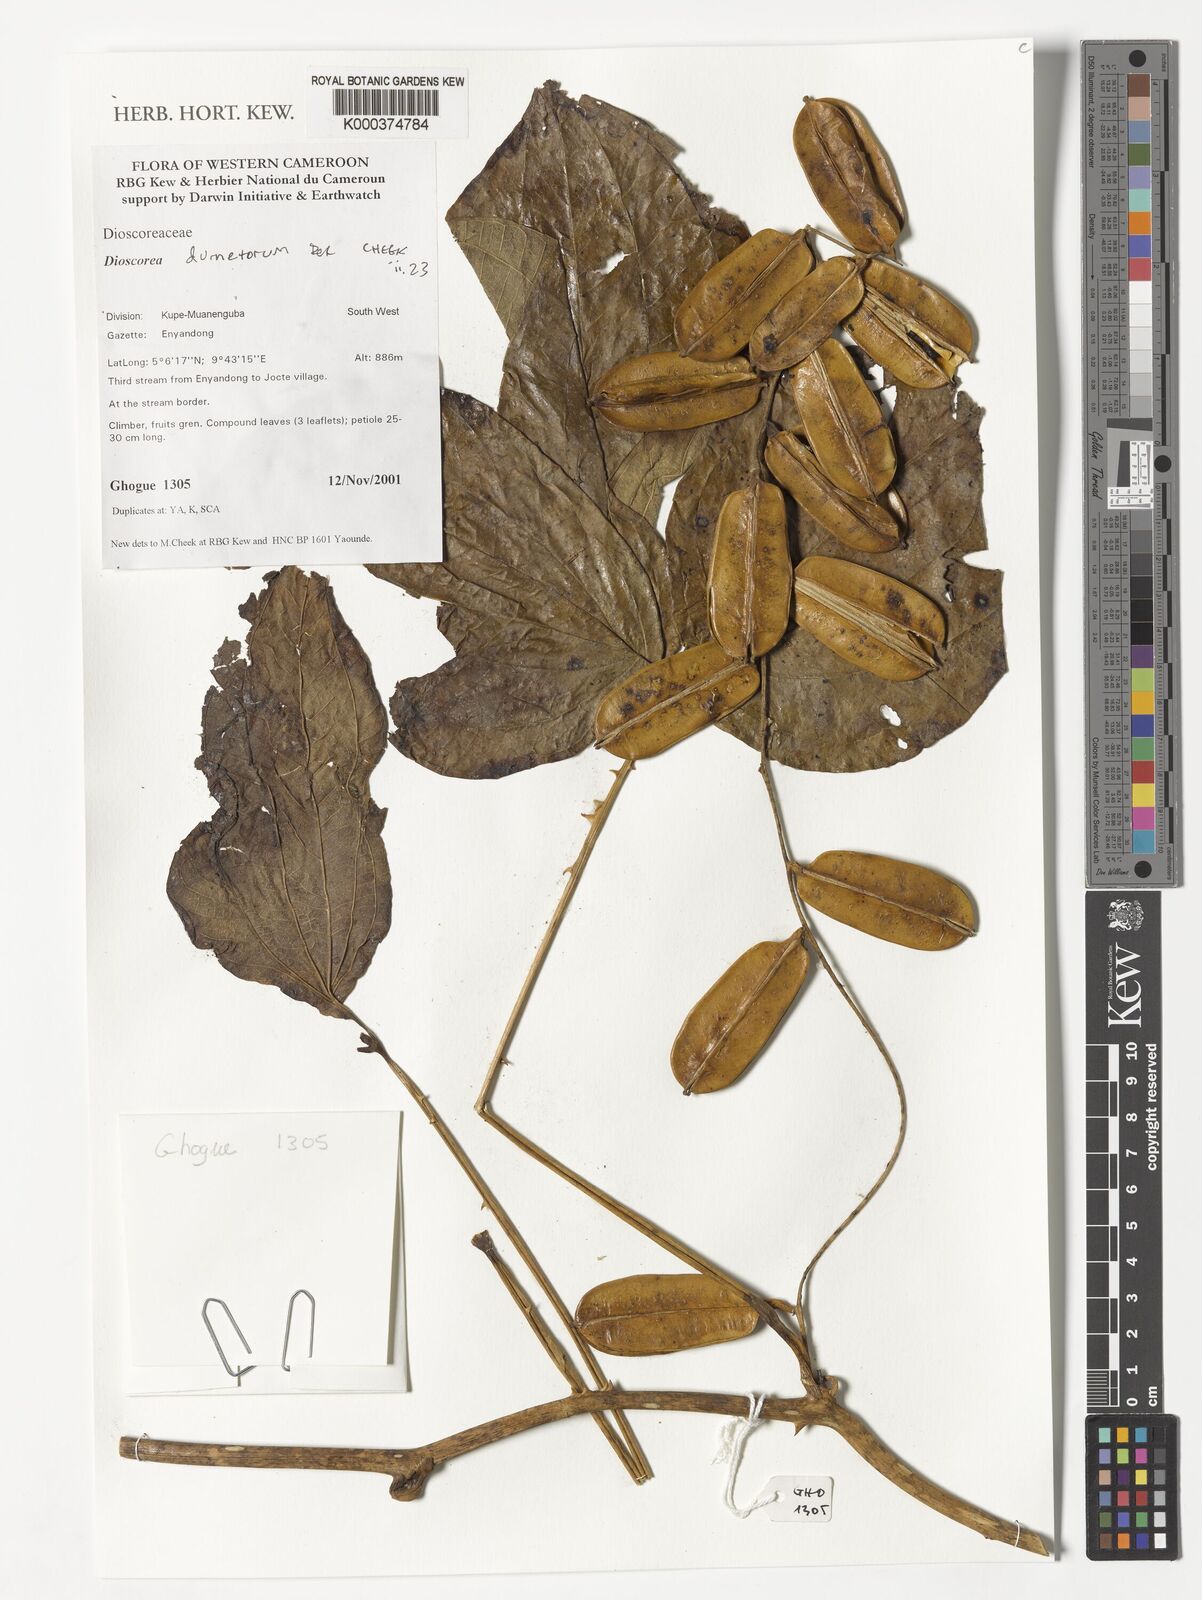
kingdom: Plantae
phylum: Tracheophyta
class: Liliopsida
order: Dioscoreales
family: Dioscoreaceae
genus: Dioscorea
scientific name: Dioscorea dumetorum
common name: African bitter yam
